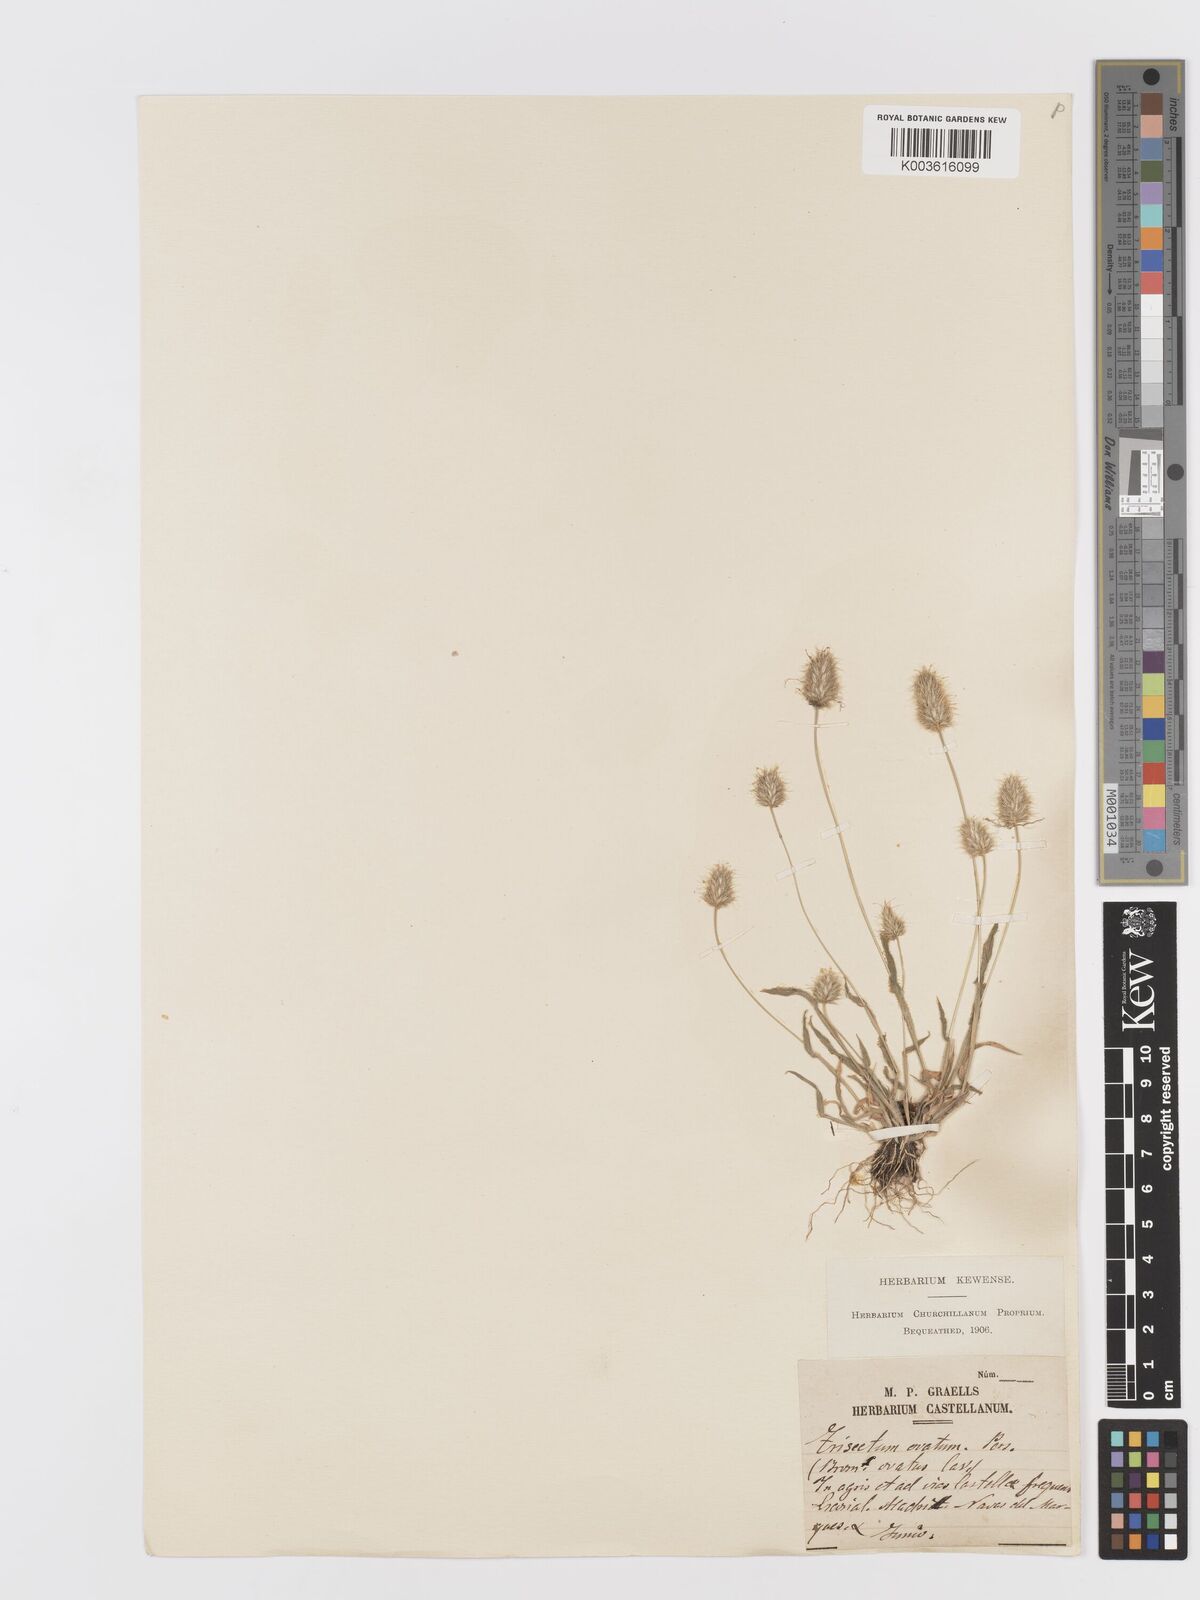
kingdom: Plantae
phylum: Tracheophyta
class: Liliopsida
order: Poales
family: Poaceae
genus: Trisetaria
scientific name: Trisetaria ovata
